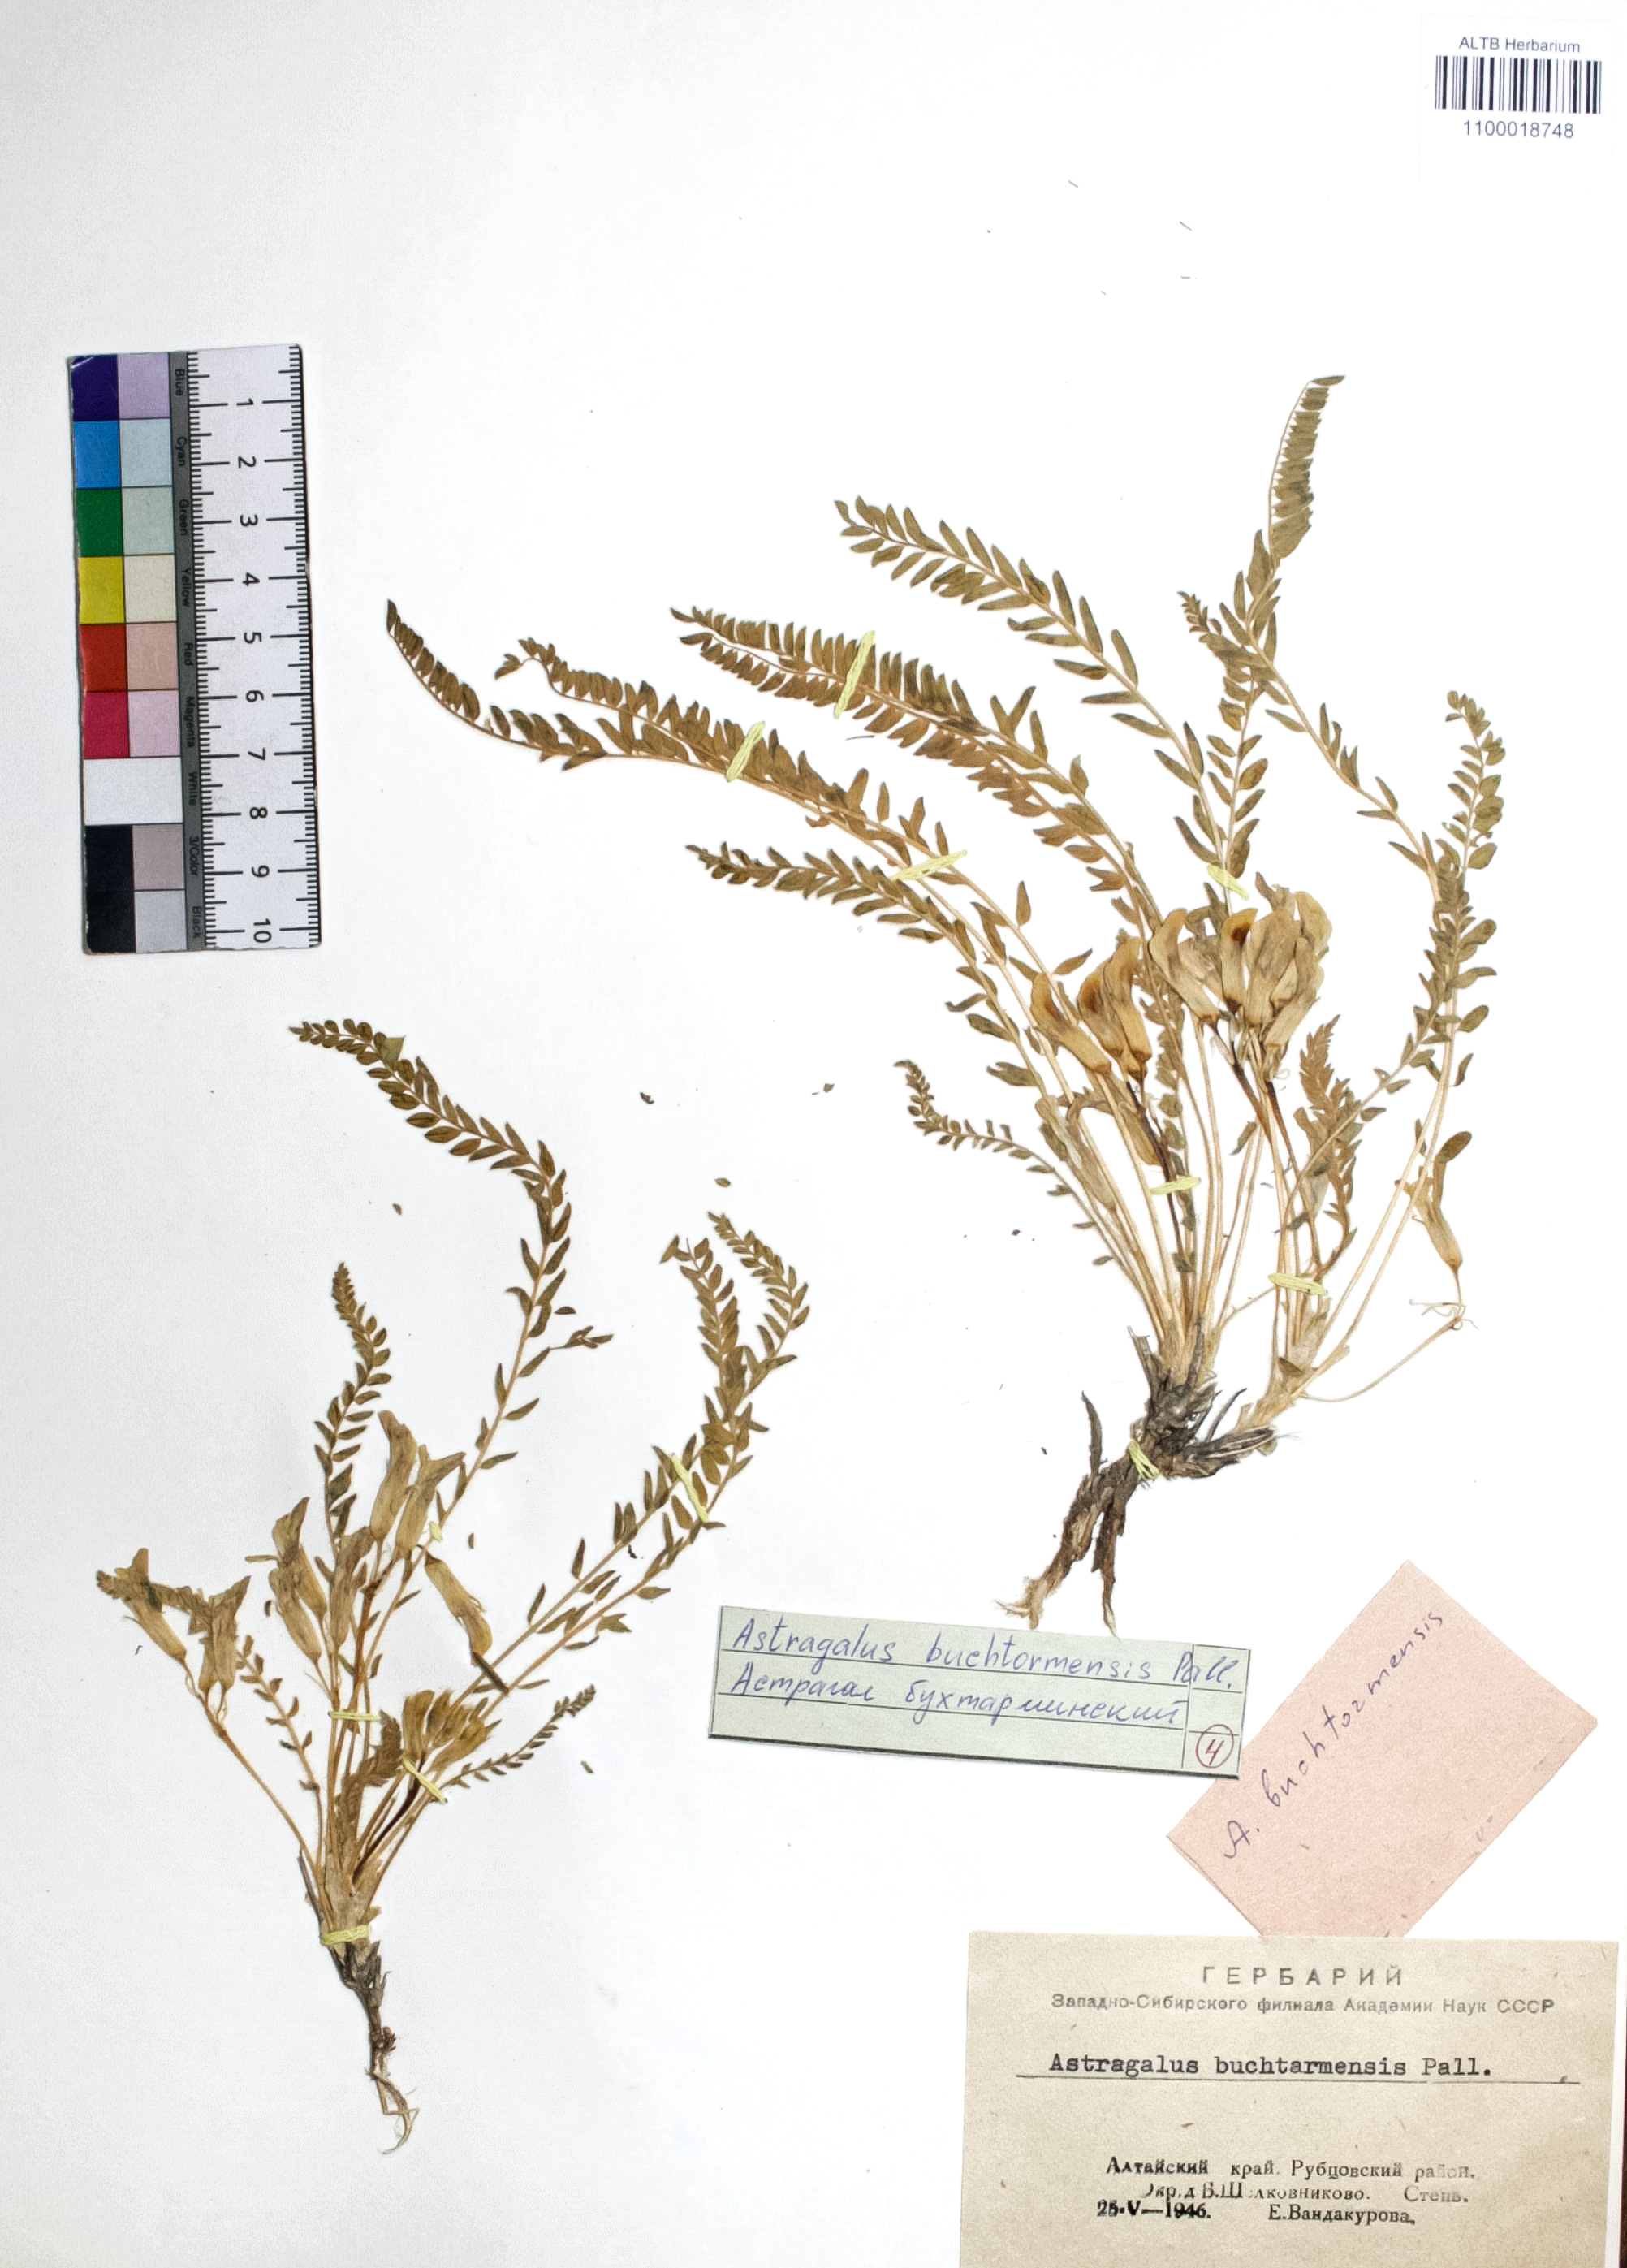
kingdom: Plantae
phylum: Tracheophyta
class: Magnoliopsida
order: Fabales
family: Fabaceae
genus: Astragalus
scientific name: Astragalus buchtormensis
